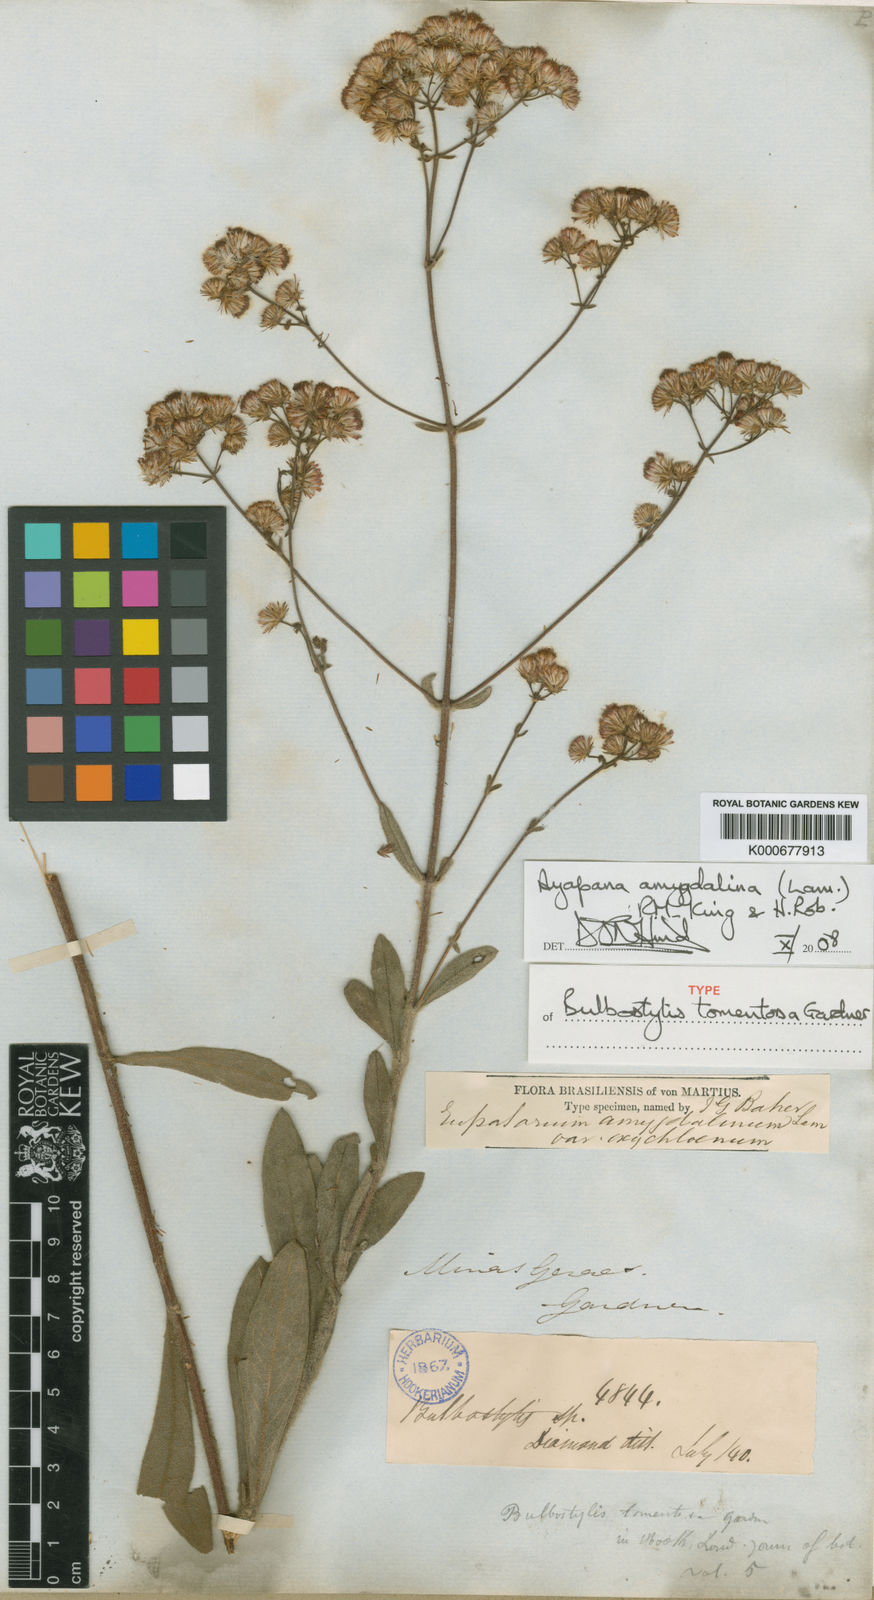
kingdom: Plantae
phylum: Tracheophyta
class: Magnoliopsida
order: Asterales
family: Asteraceae
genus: Ayapana
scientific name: Ayapana amygdalina
